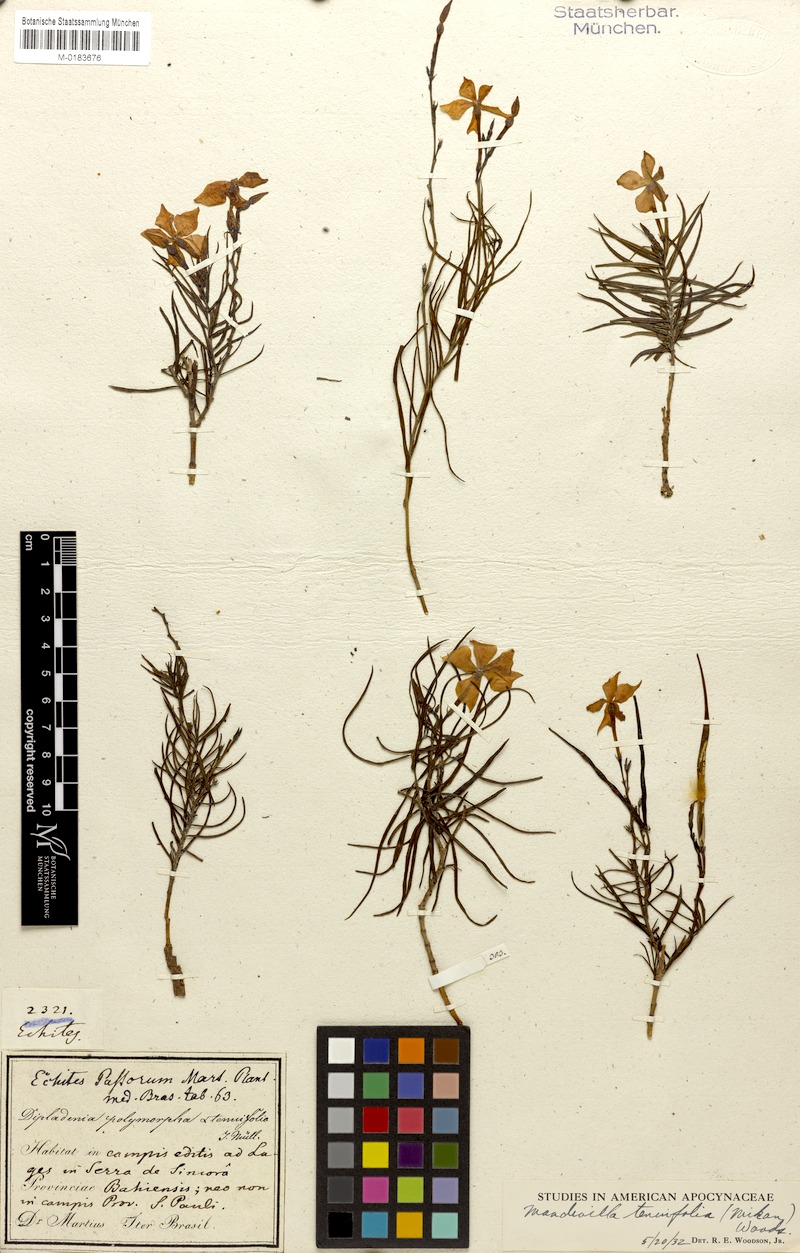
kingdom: Plantae
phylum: Tracheophyta
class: Magnoliopsida
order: Gentianales
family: Apocynaceae
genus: Mandevilla
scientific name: Mandevilla tenuifolia
